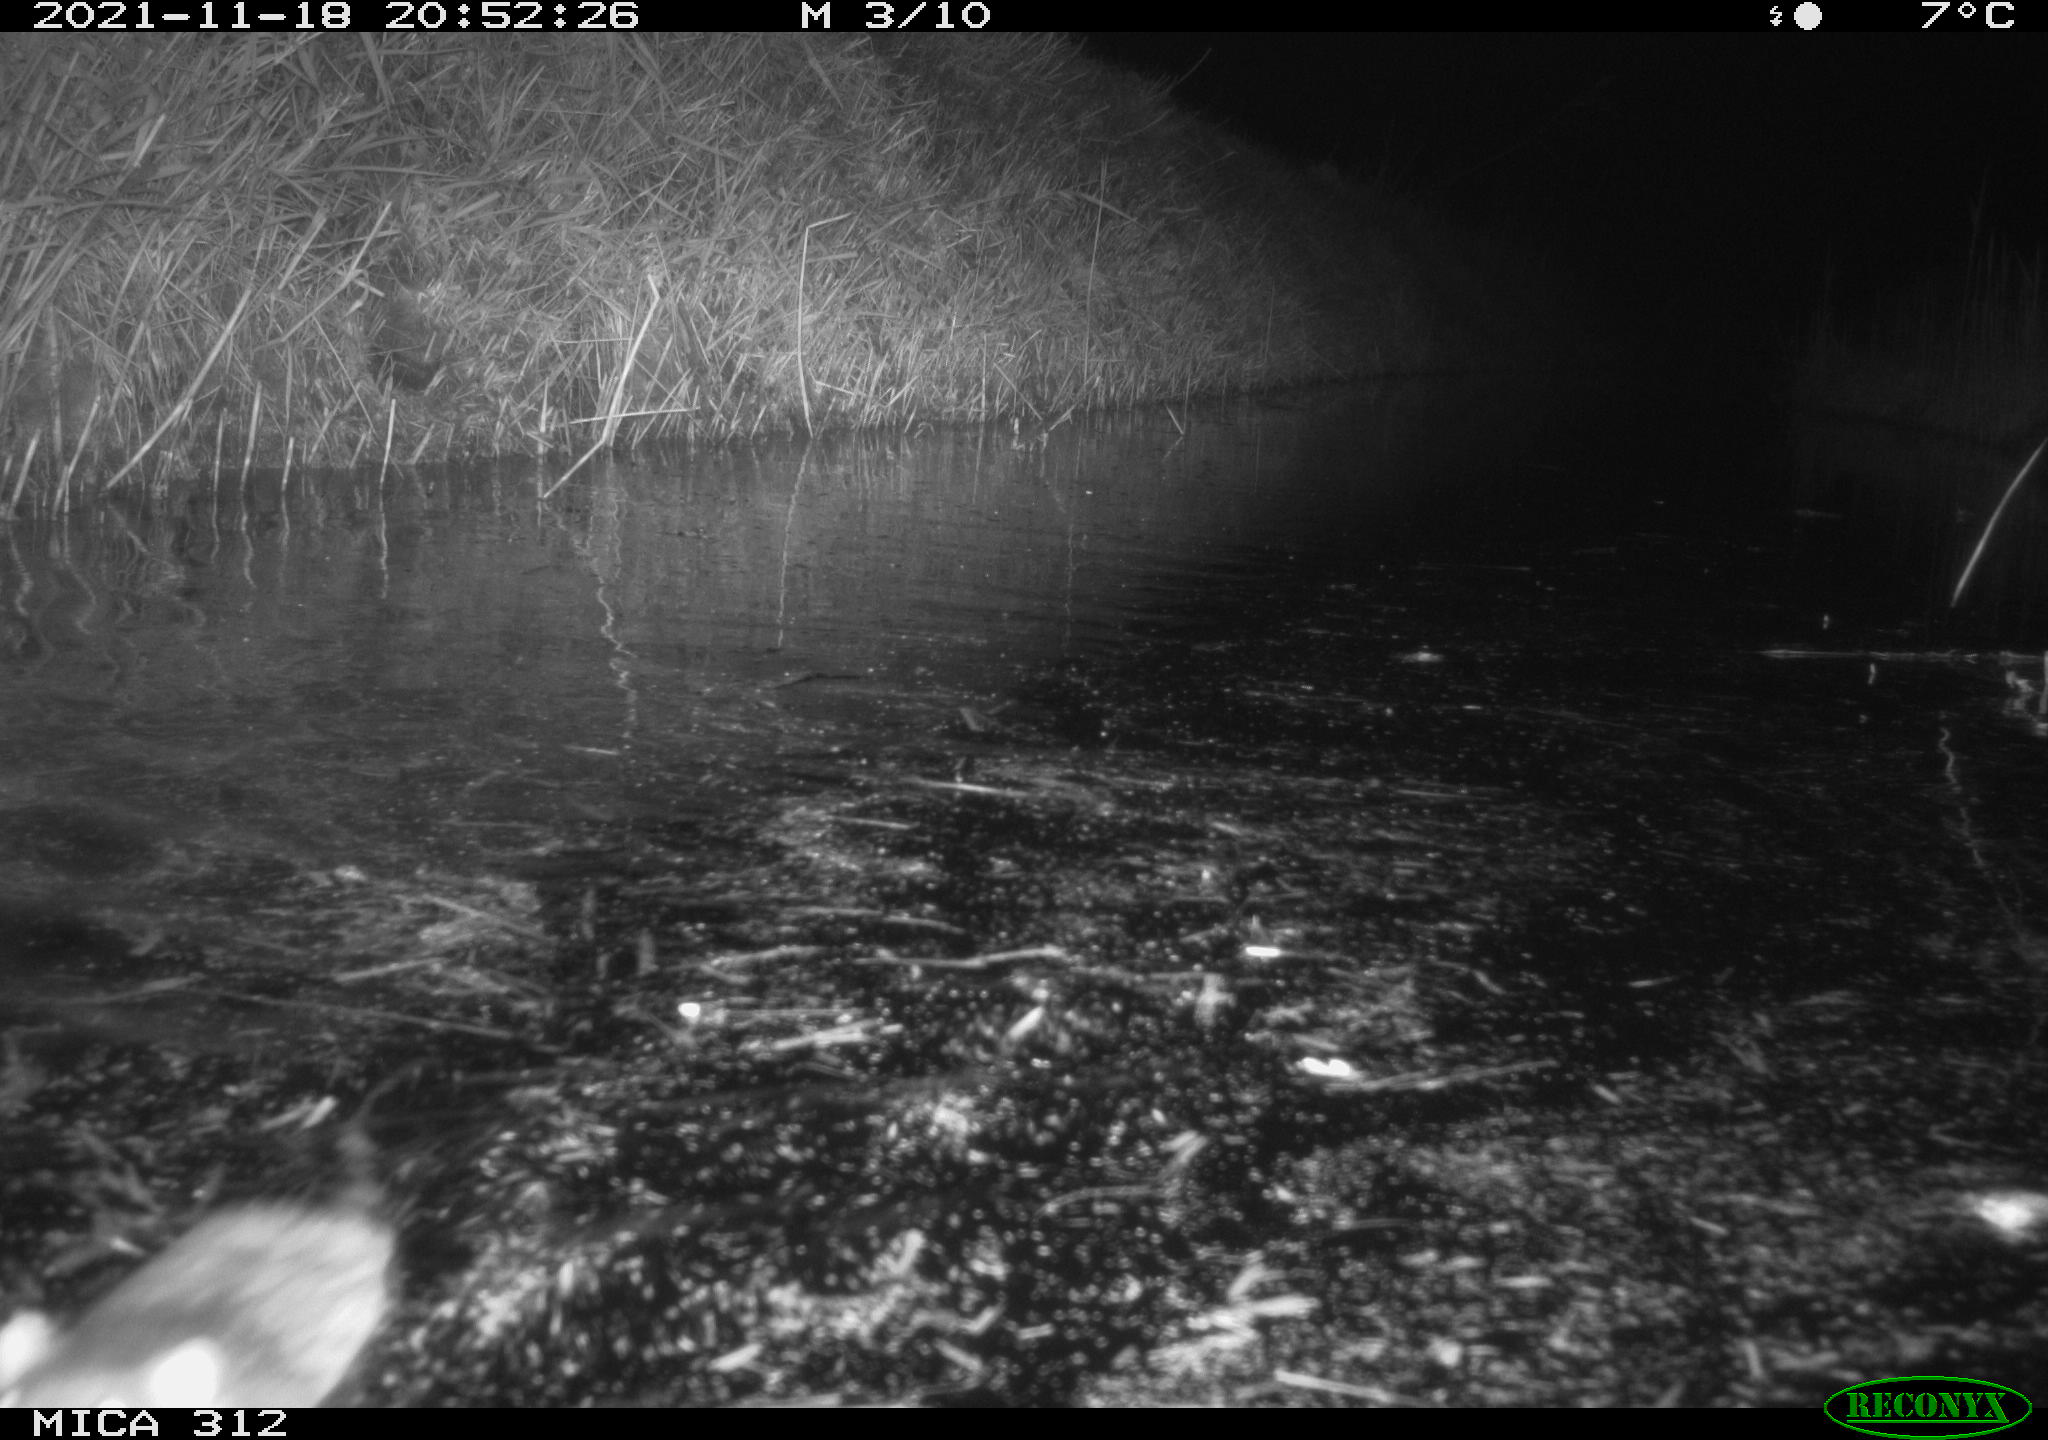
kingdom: Animalia
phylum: Chordata
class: Mammalia
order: Rodentia
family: Muridae
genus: Rattus
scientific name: Rattus norvegicus
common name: Brown rat
